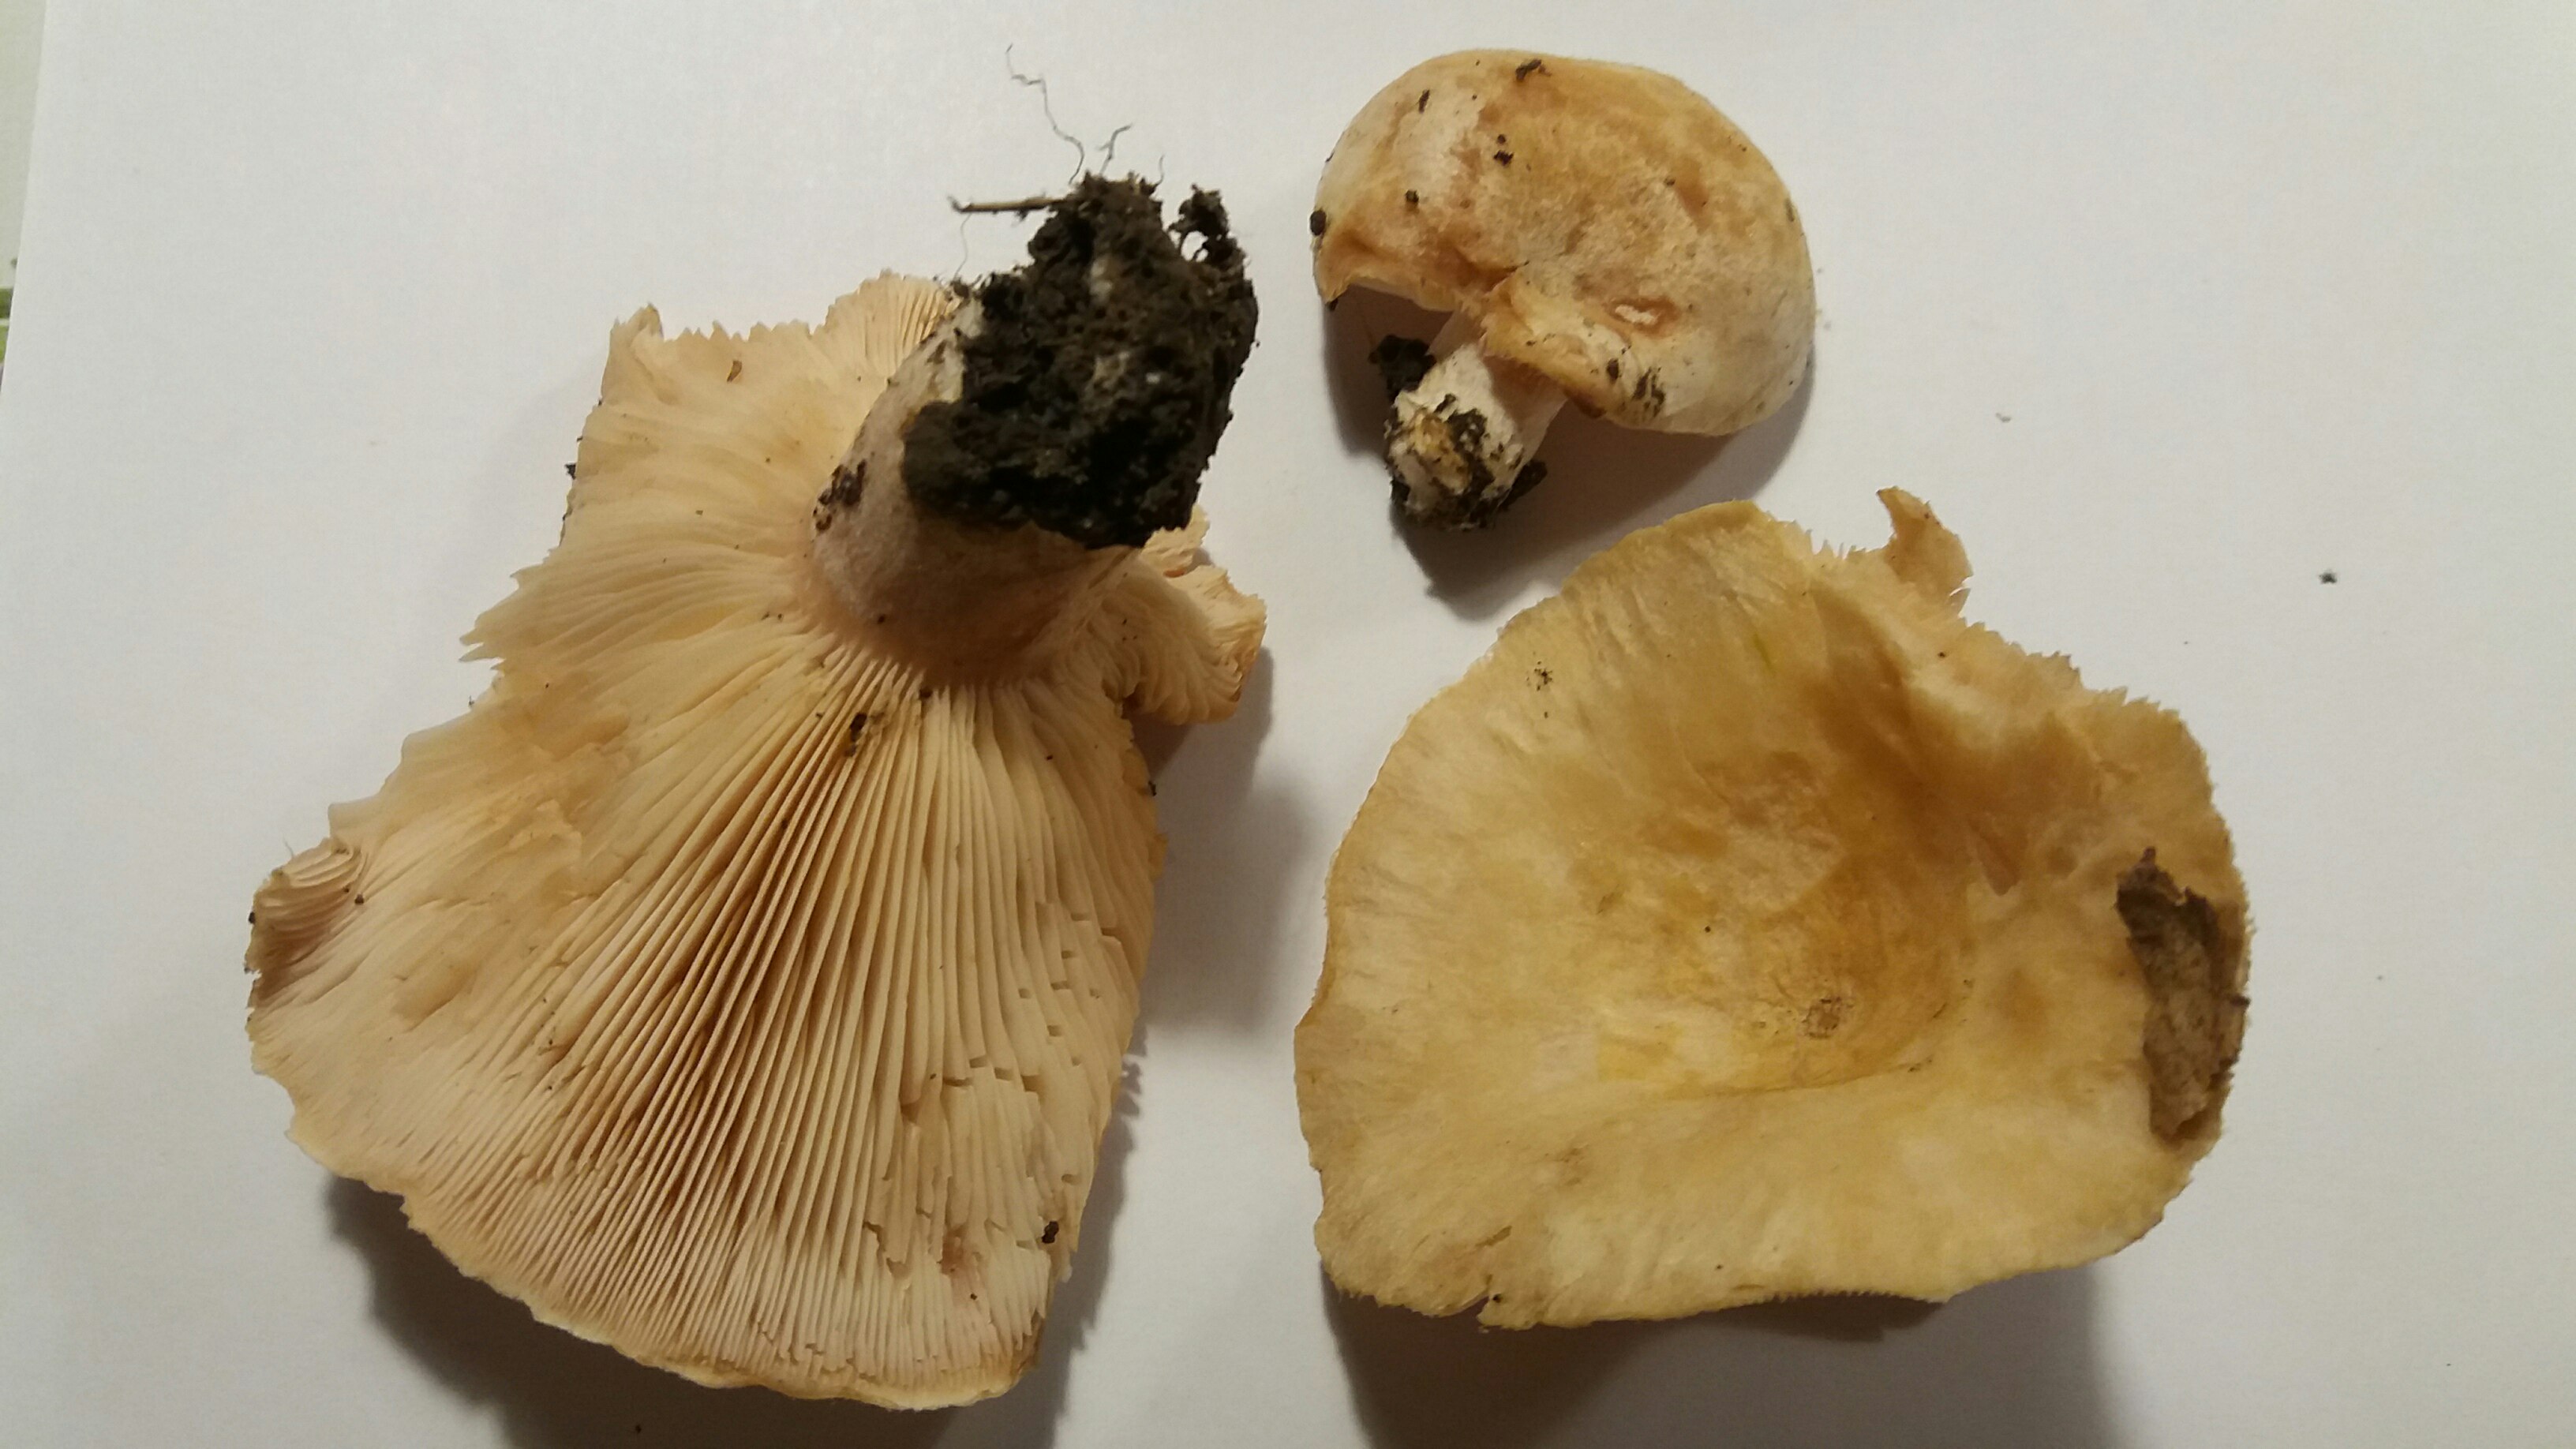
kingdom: Fungi
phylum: Basidiomycota
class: Agaricomycetes
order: Russulales
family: Russulaceae
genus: Lactarius
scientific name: Lactarius pubescens
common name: dunet mælkehat
